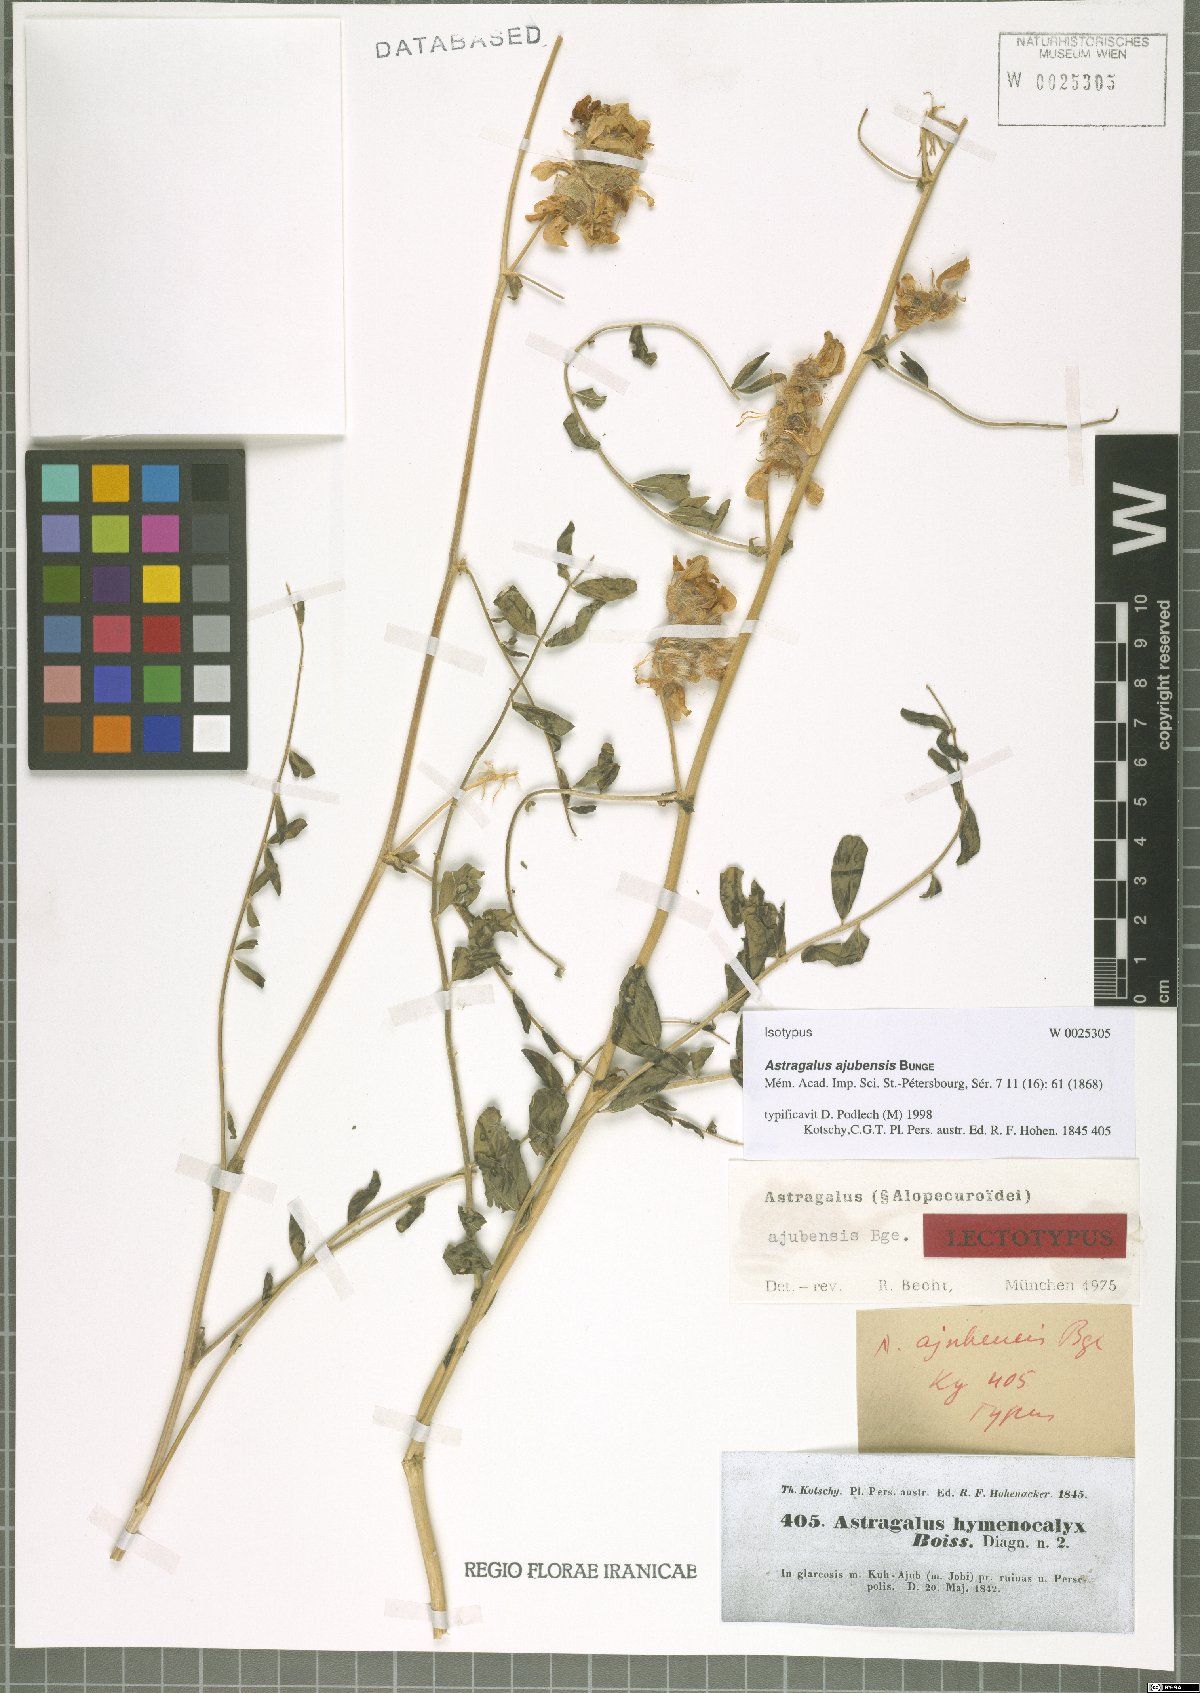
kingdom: Plantae
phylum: Tracheophyta
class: Magnoliopsida
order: Fabales
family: Fabaceae
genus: Astragalus
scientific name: Astragalus macrocephalus
